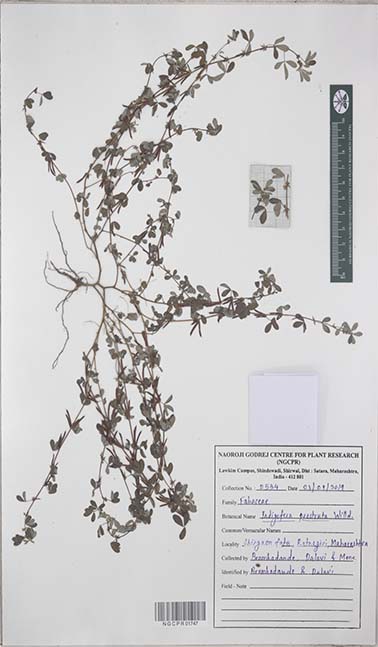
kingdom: Plantae
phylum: Tracheophyta
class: Magnoliopsida
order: Fabales
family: Fabaceae
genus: Indigofera
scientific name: Indigofera prostrata
